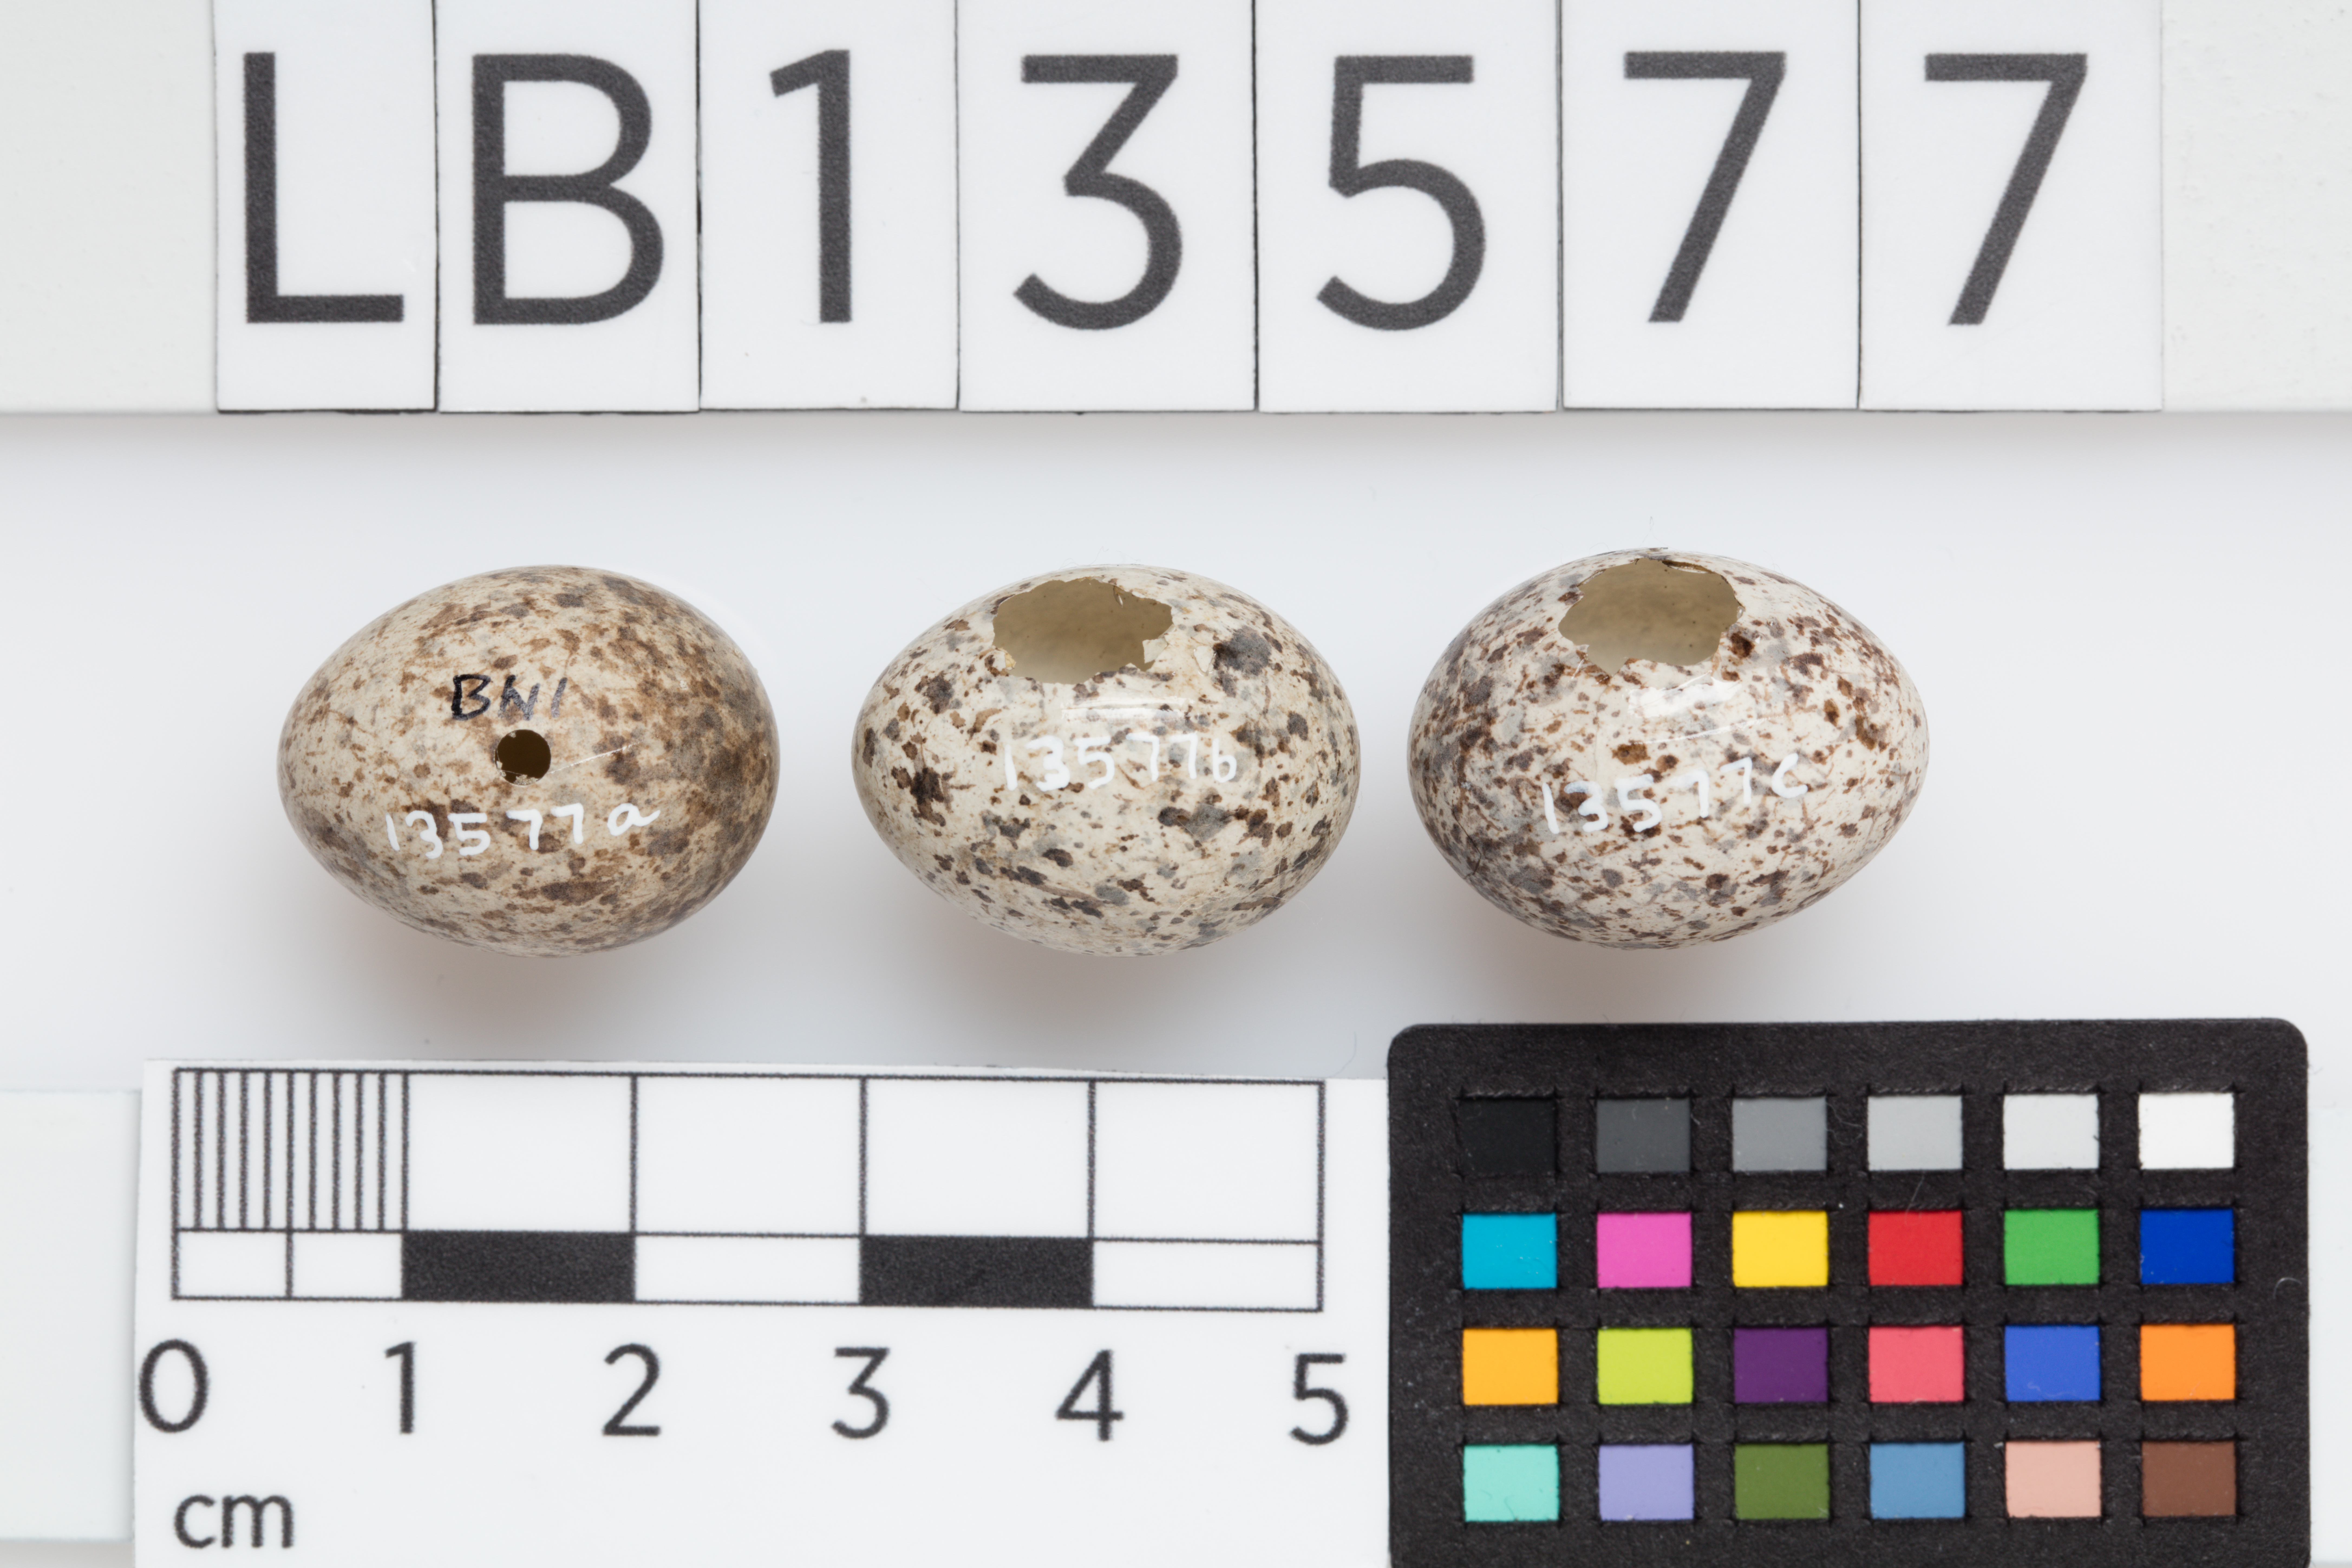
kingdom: Animalia
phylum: Chordata
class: Aves
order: Passeriformes
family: Motacillidae
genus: Anthus
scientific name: Anthus novaeseelandiae
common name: New zealand pipit
